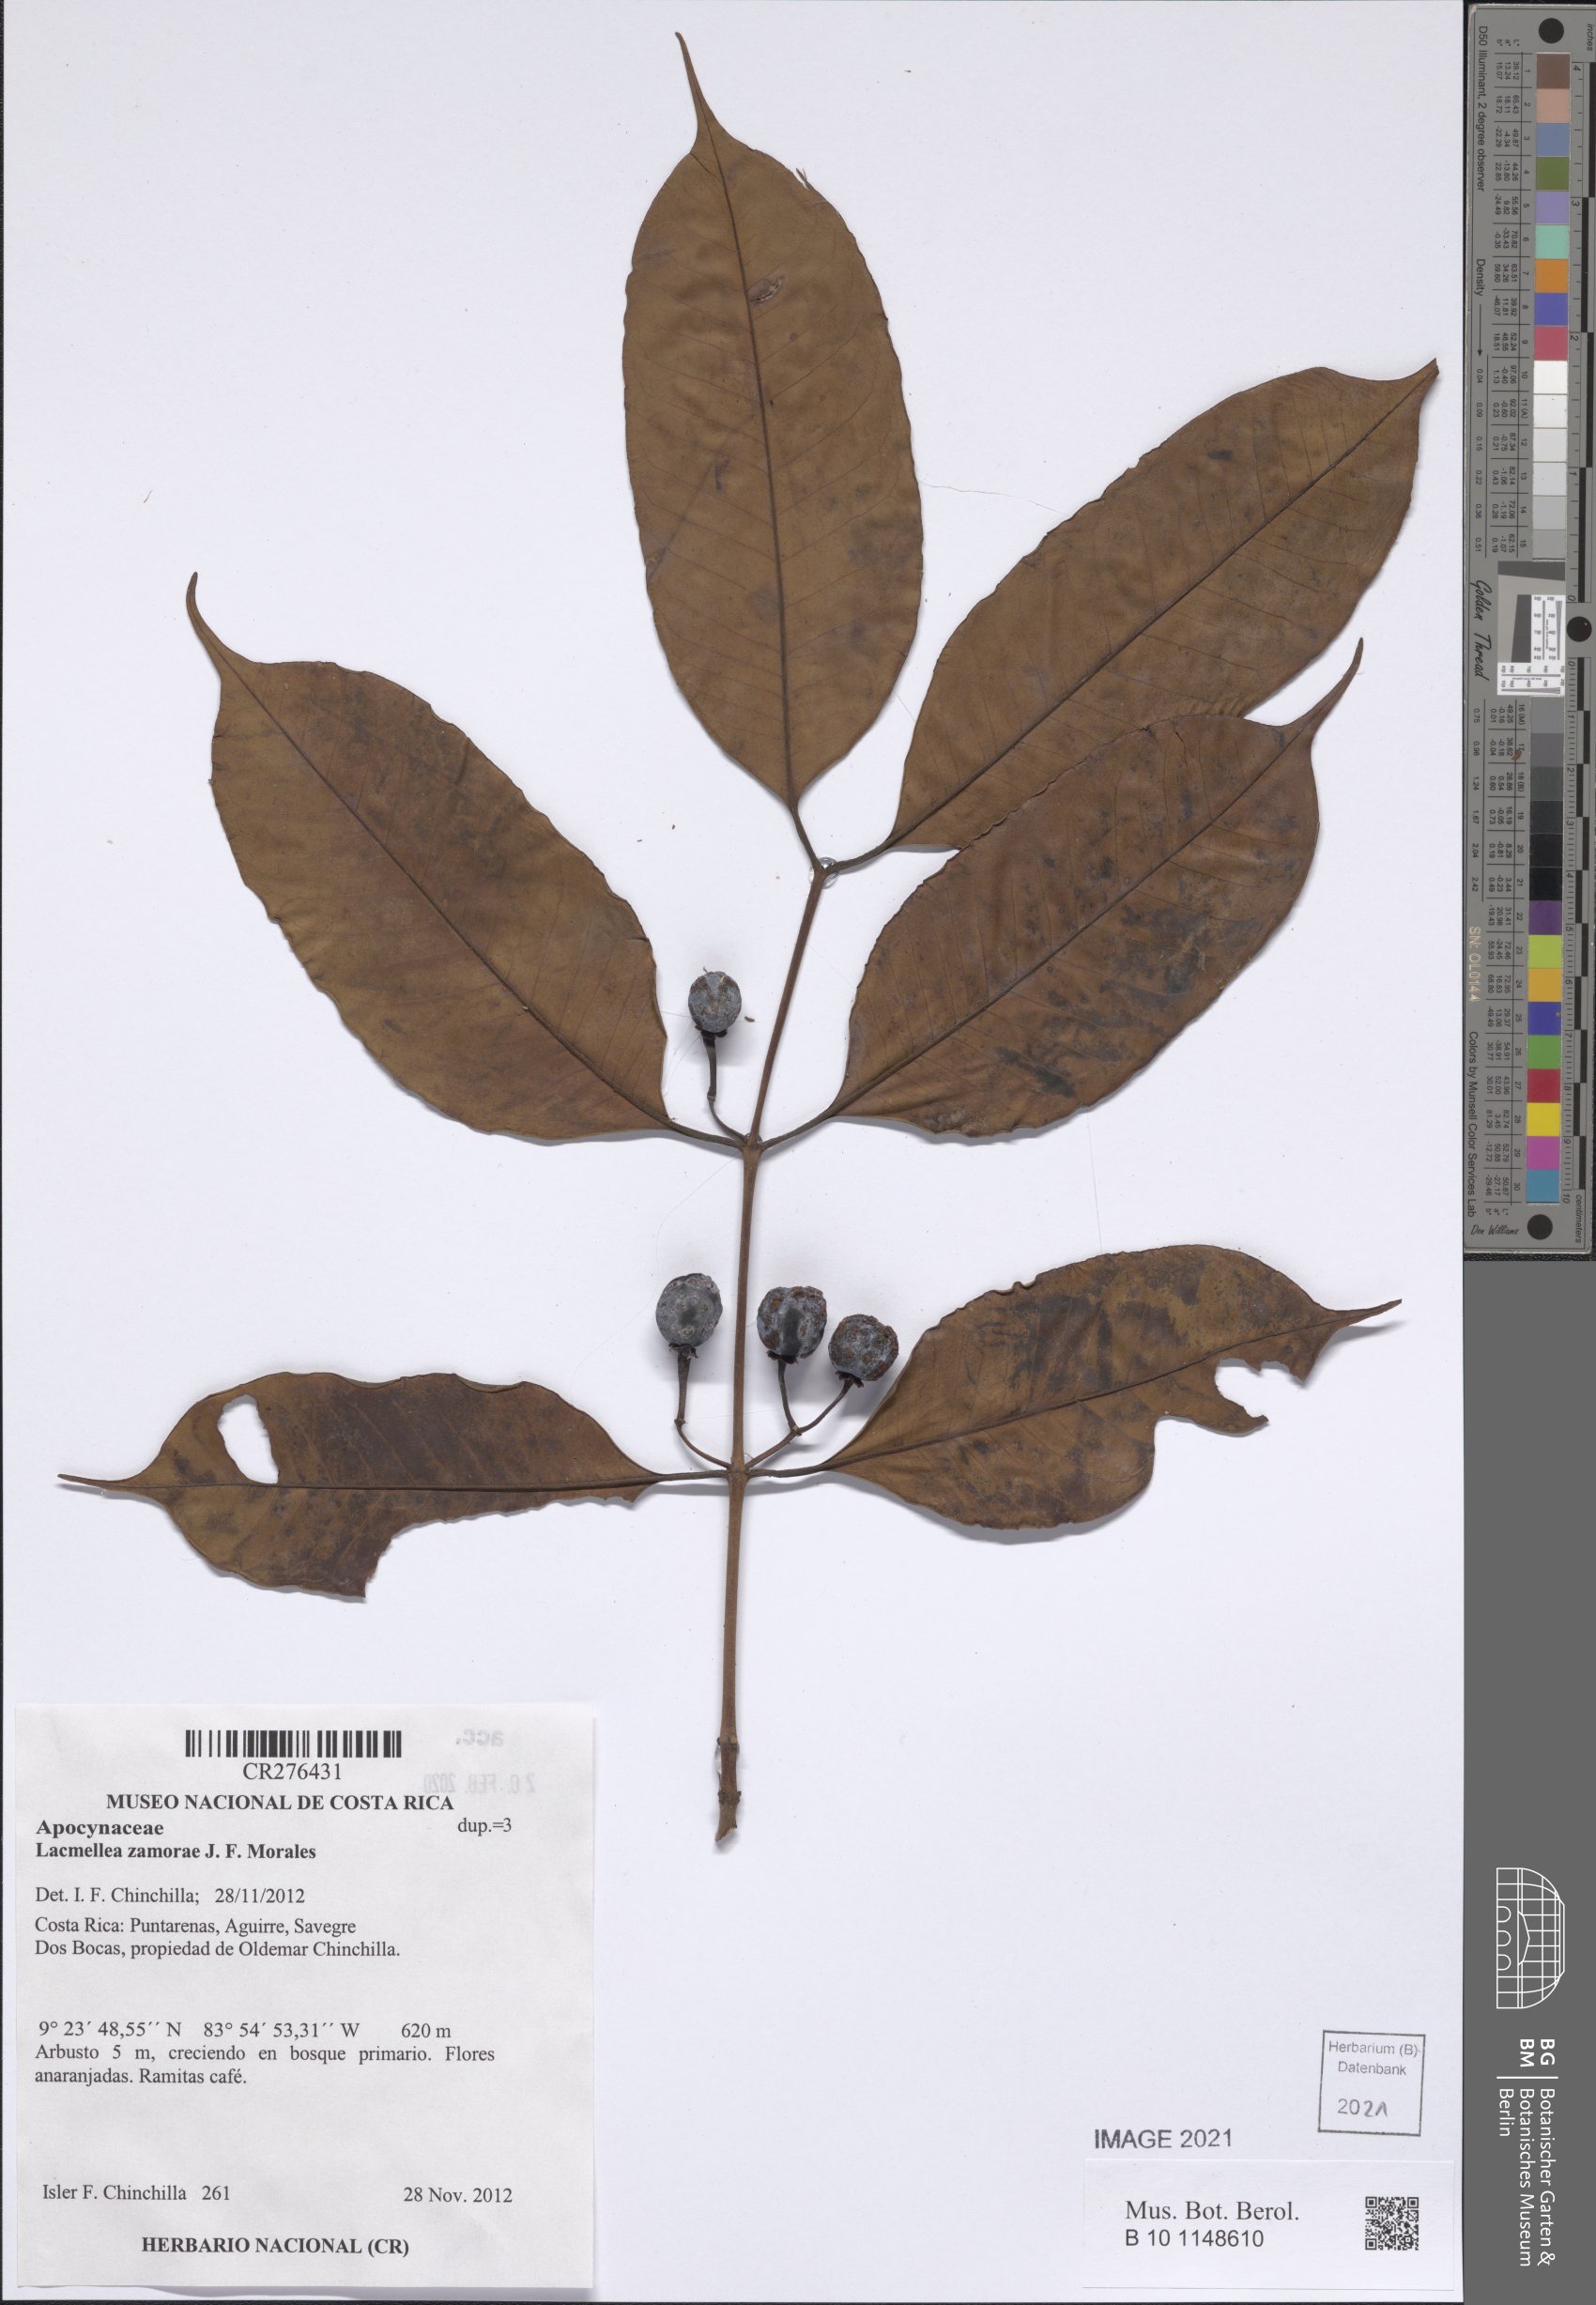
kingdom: Plantae
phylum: Tracheophyta
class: Magnoliopsida
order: Gentianales
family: Apocynaceae
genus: Lacmellea
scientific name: Lacmellea zamorae
